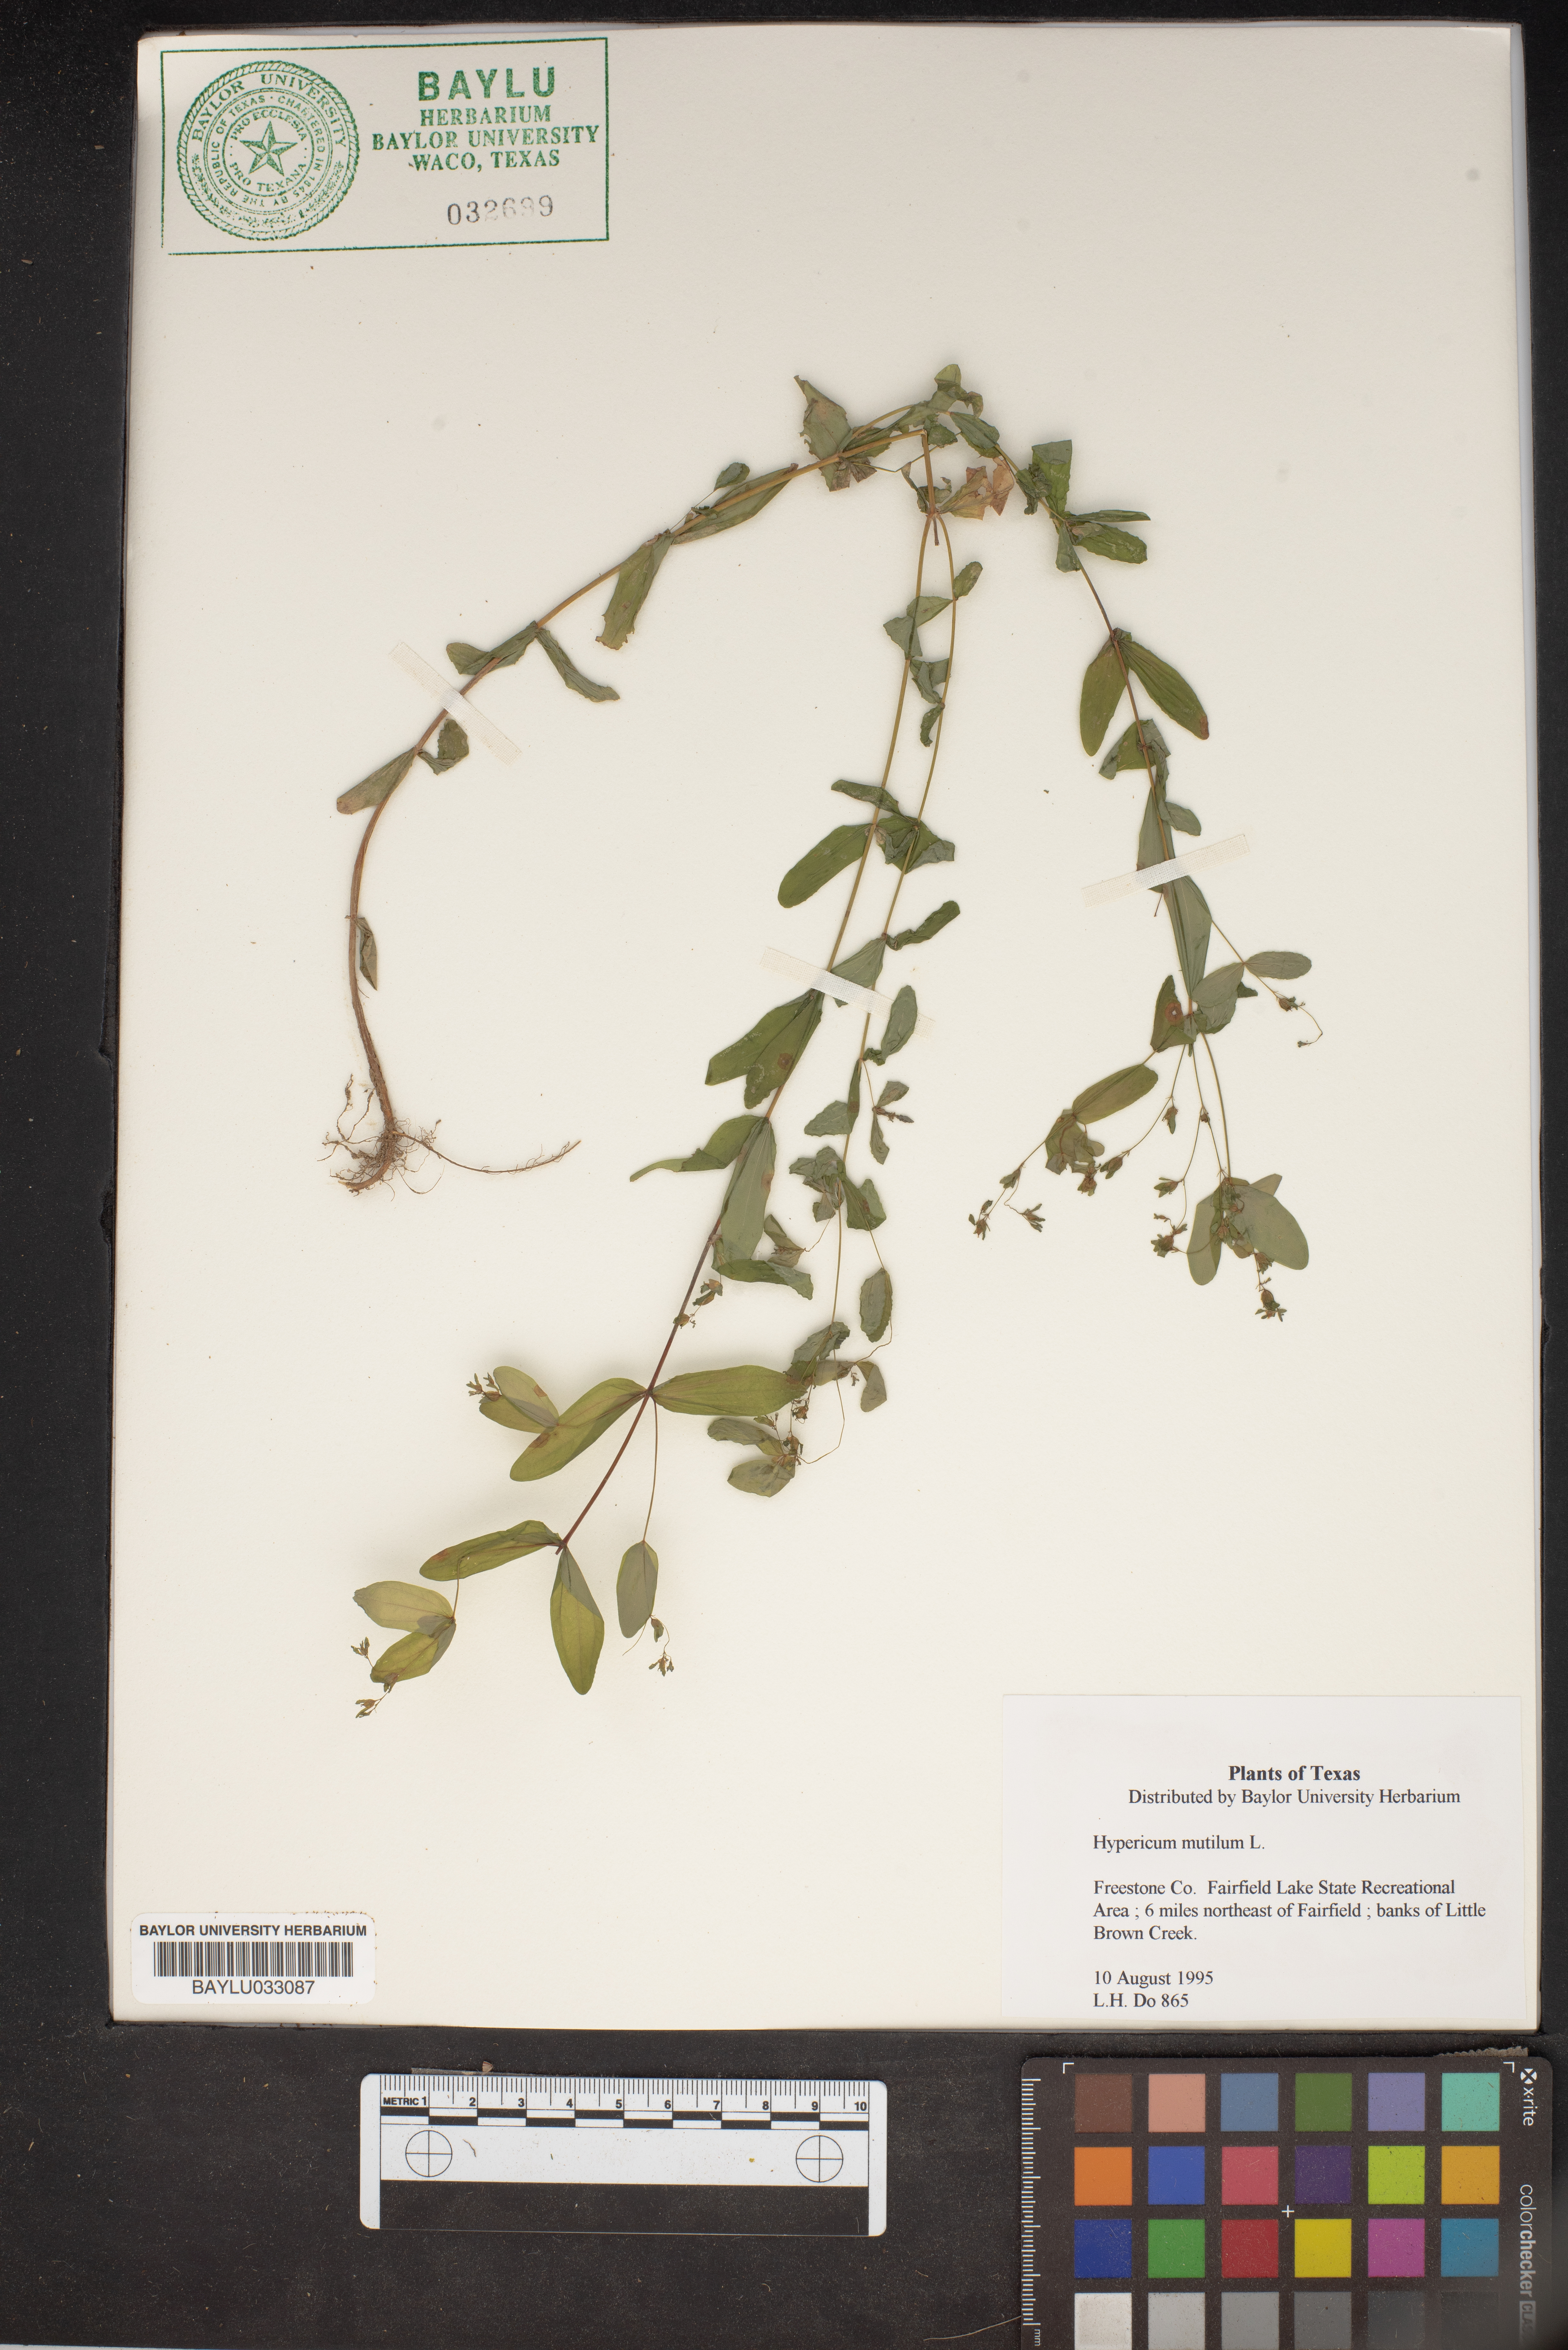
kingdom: Plantae
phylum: Tracheophyta
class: Magnoliopsida
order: Malpighiales
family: Hypericaceae
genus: Hypericum
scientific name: Hypericum mutilum
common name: Dwarf st. john's-wort
